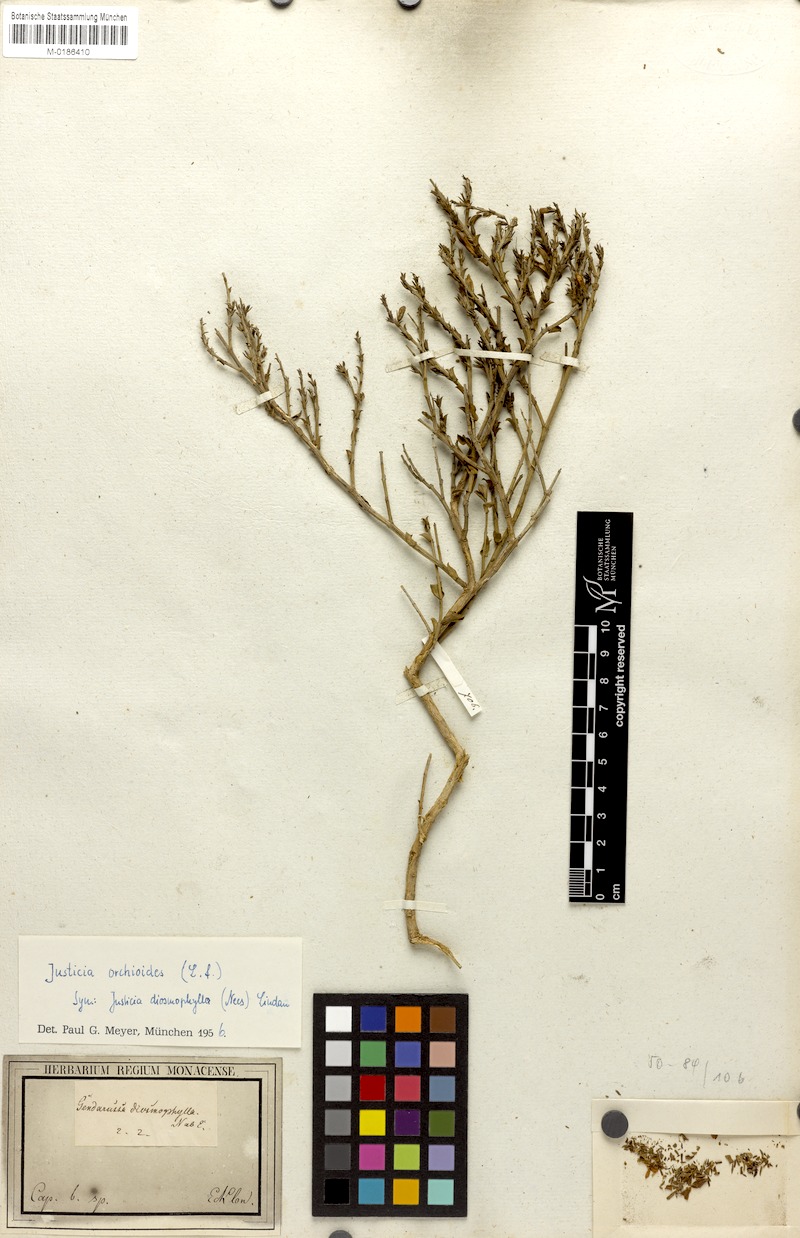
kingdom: Plantae
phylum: Tracheophyta
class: Magnoliopsida
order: Lamiales
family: Acanthaceae
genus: Justicia
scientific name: Justicia orchioides
